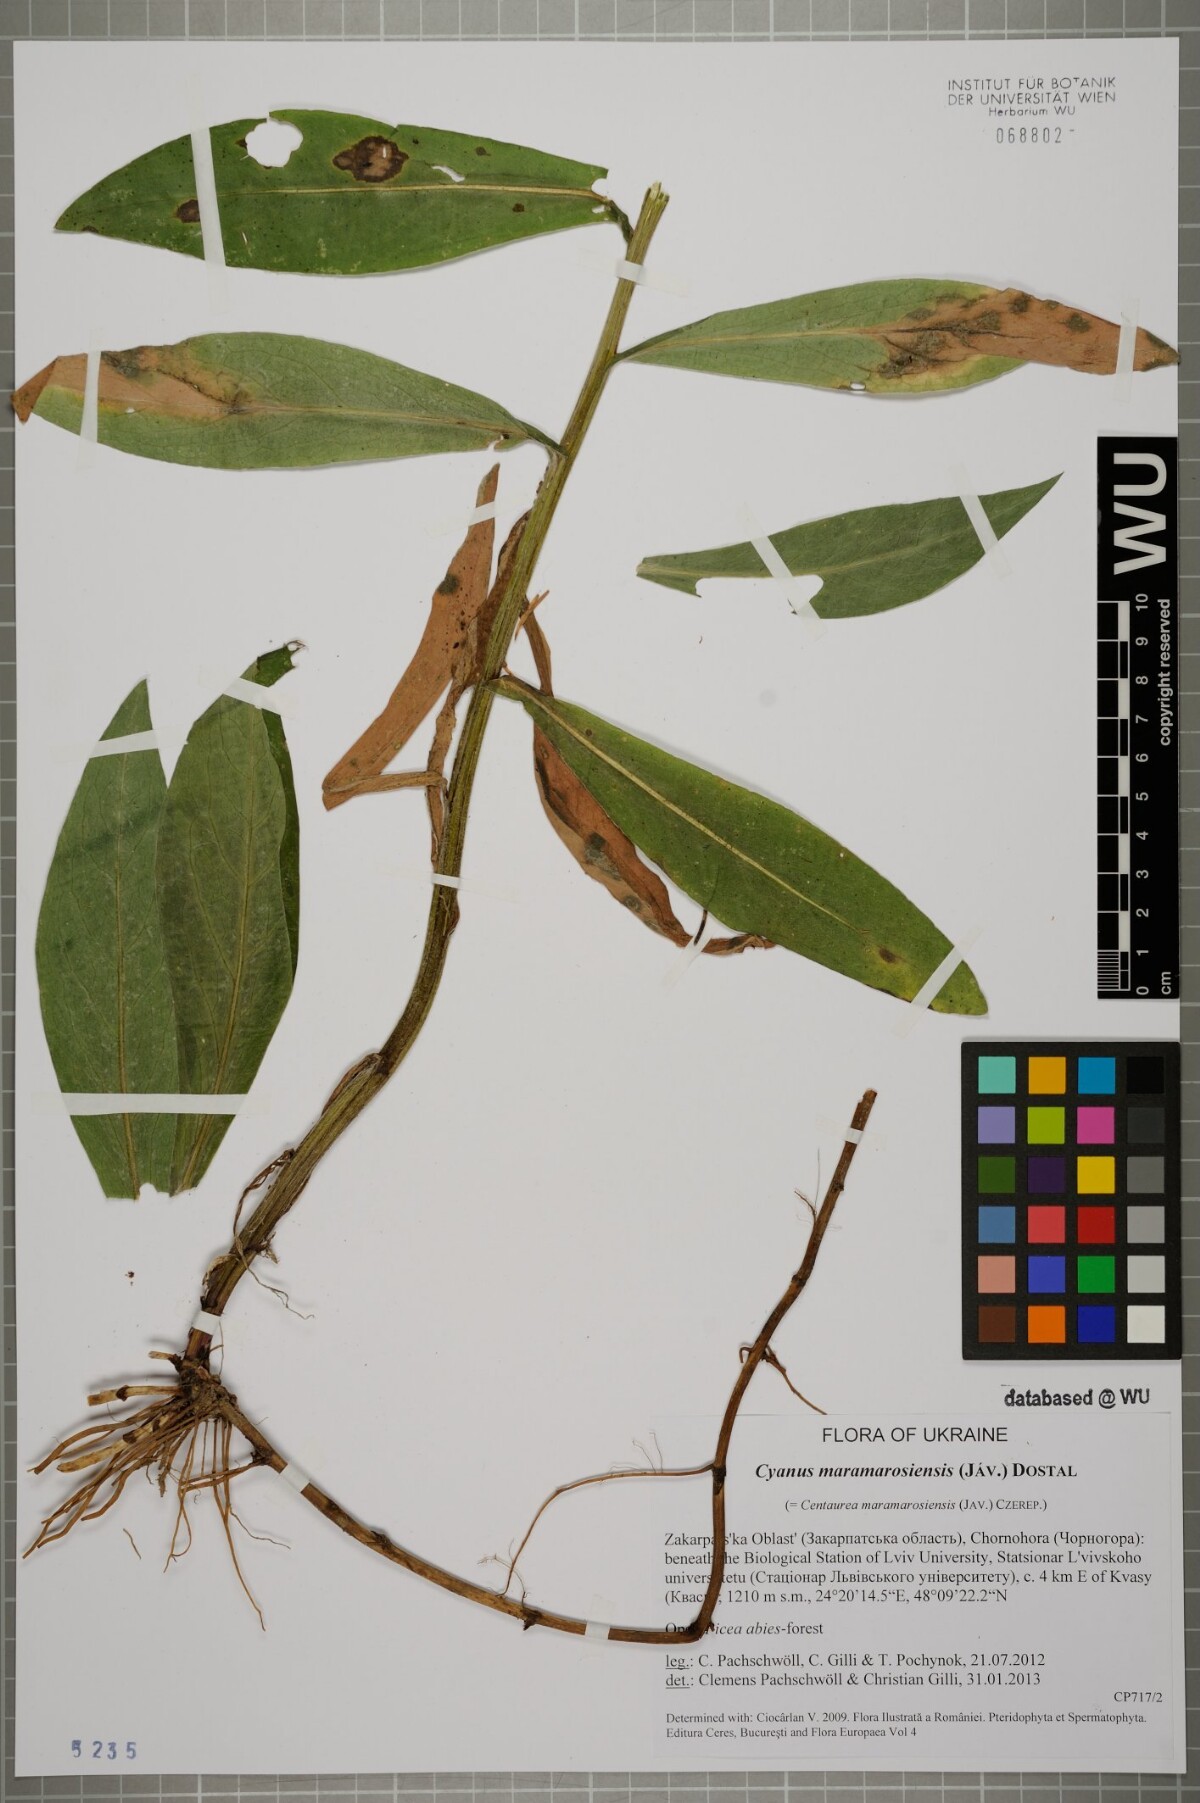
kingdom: Plantae
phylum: Tracheophyta
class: Magnoliopsida
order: Asterales
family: Asteraceae
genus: Centaurea
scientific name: Centaurea maramarosiensis
